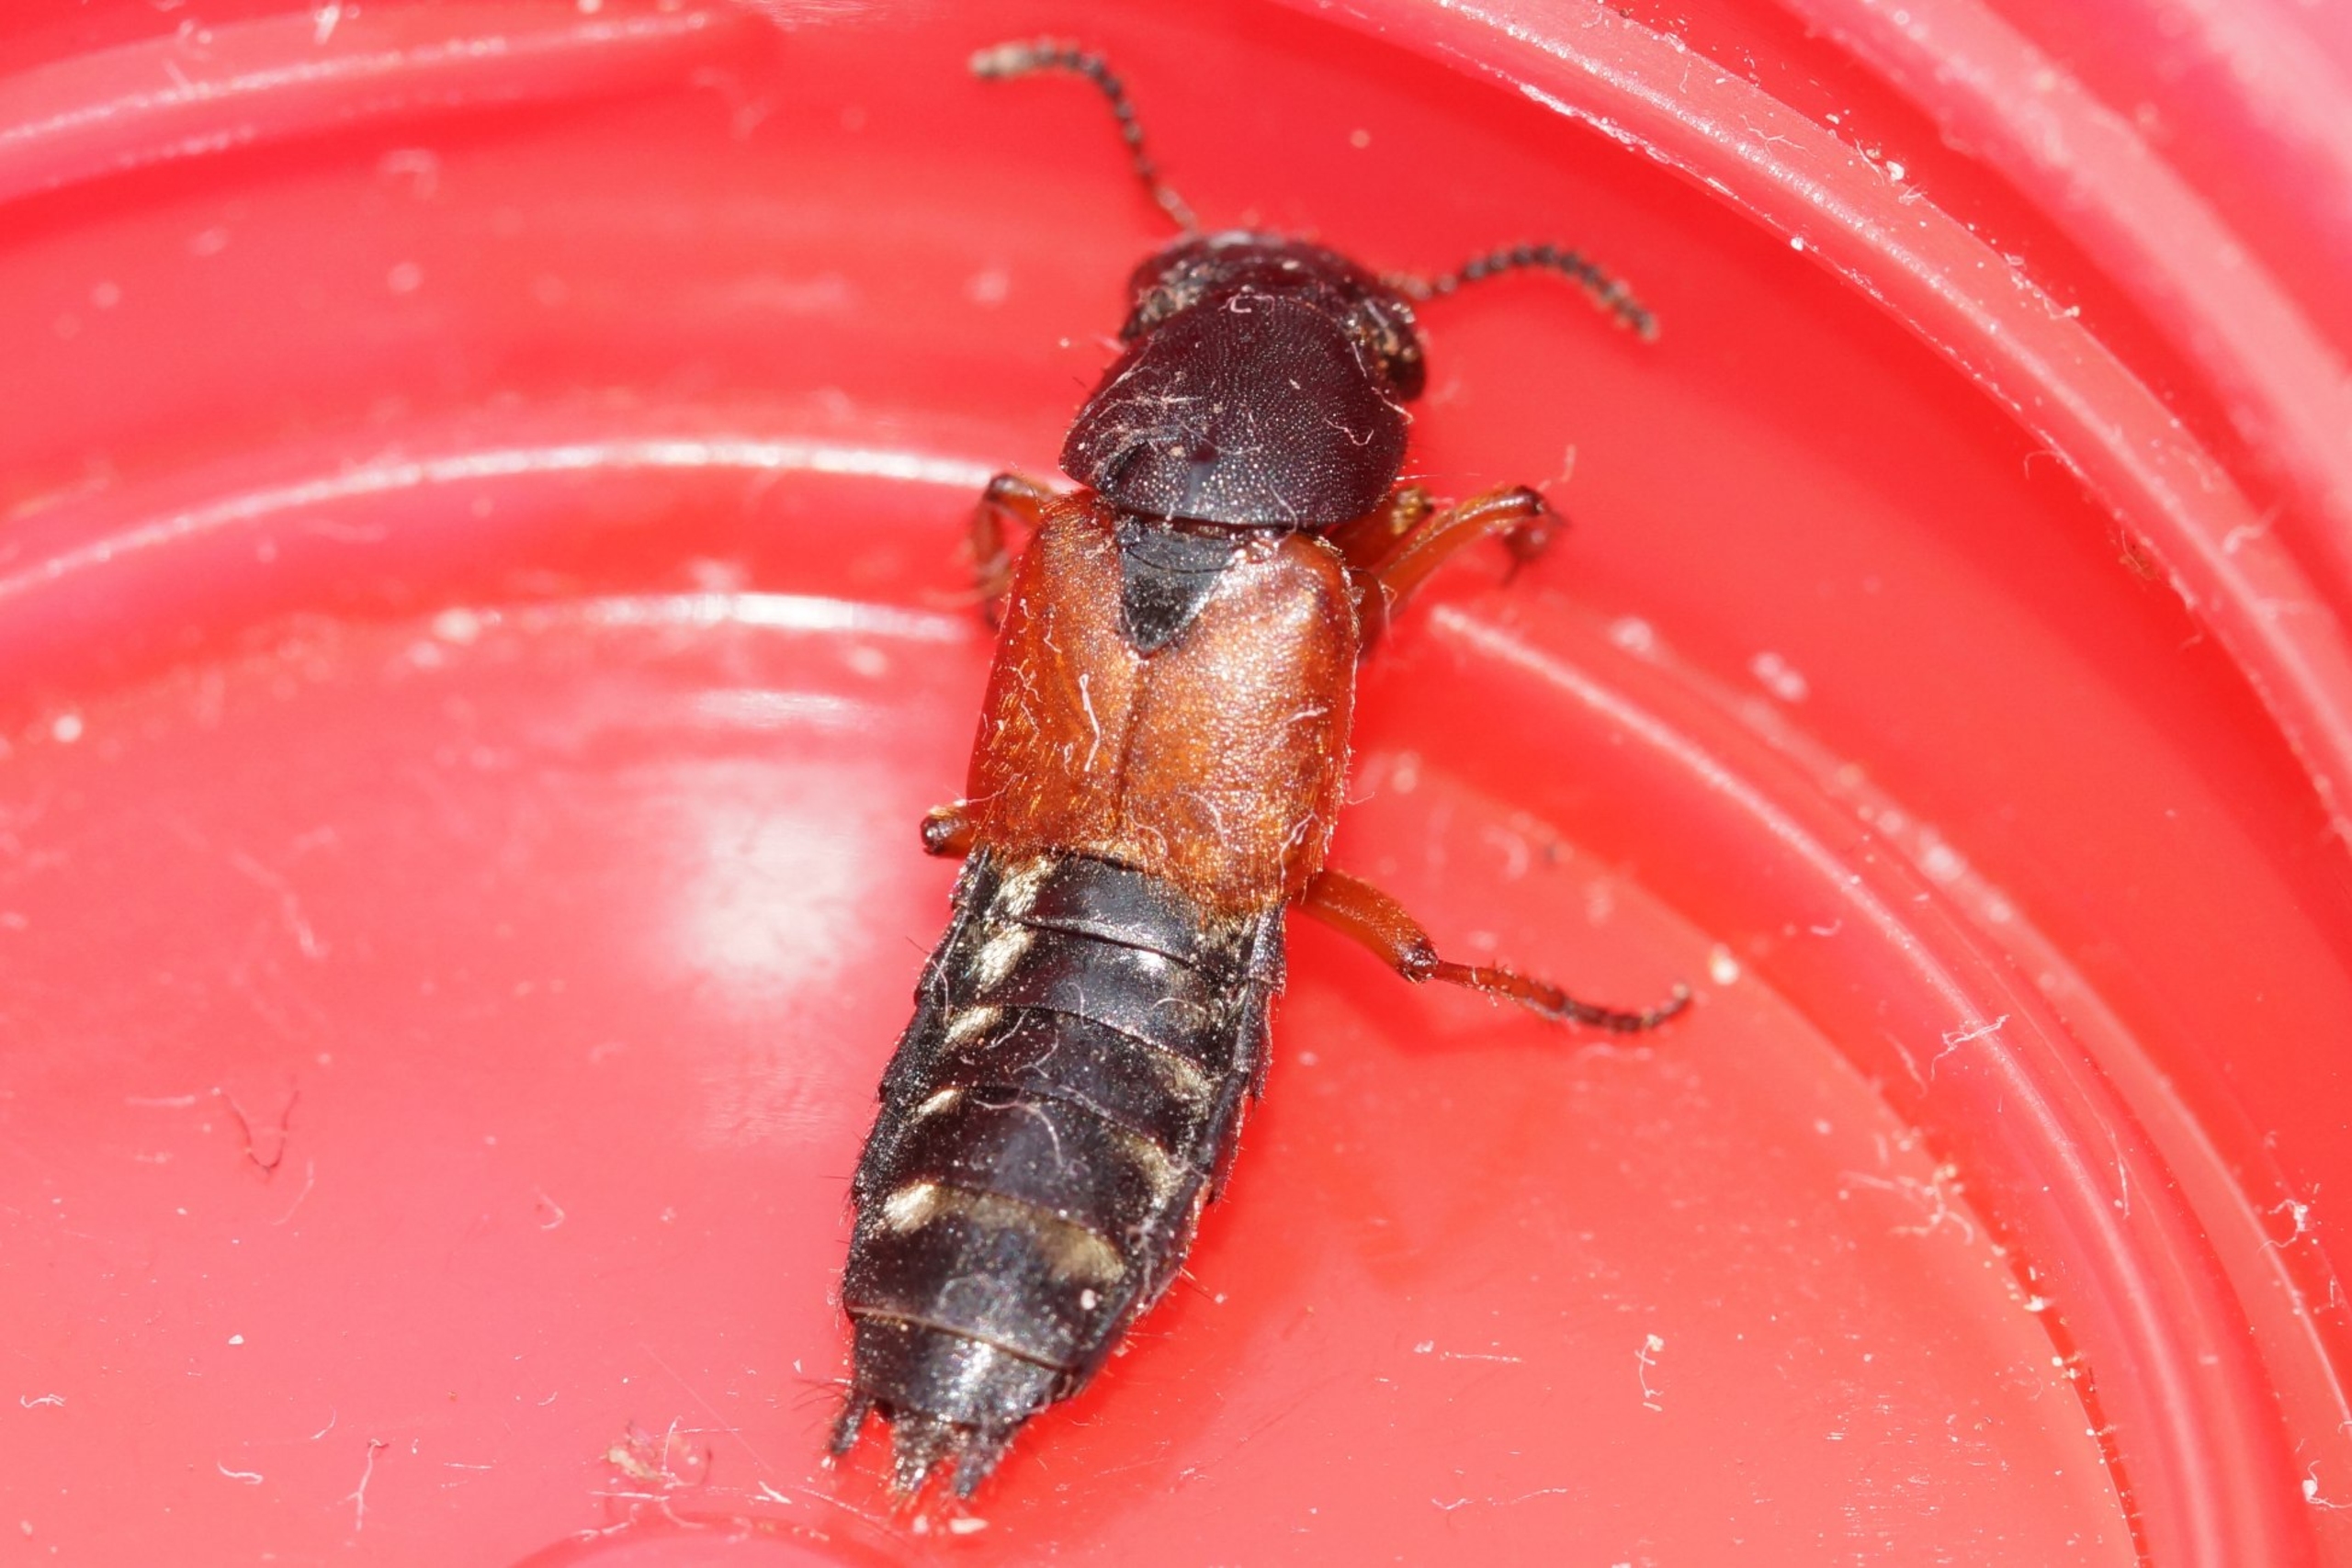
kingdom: Animalia
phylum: Arthropoda
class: Insecta
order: Coleoptera
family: Staphylinidae
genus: Platydracus
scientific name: Platydracus stercorarius
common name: Almindelig guldpletrovbille
